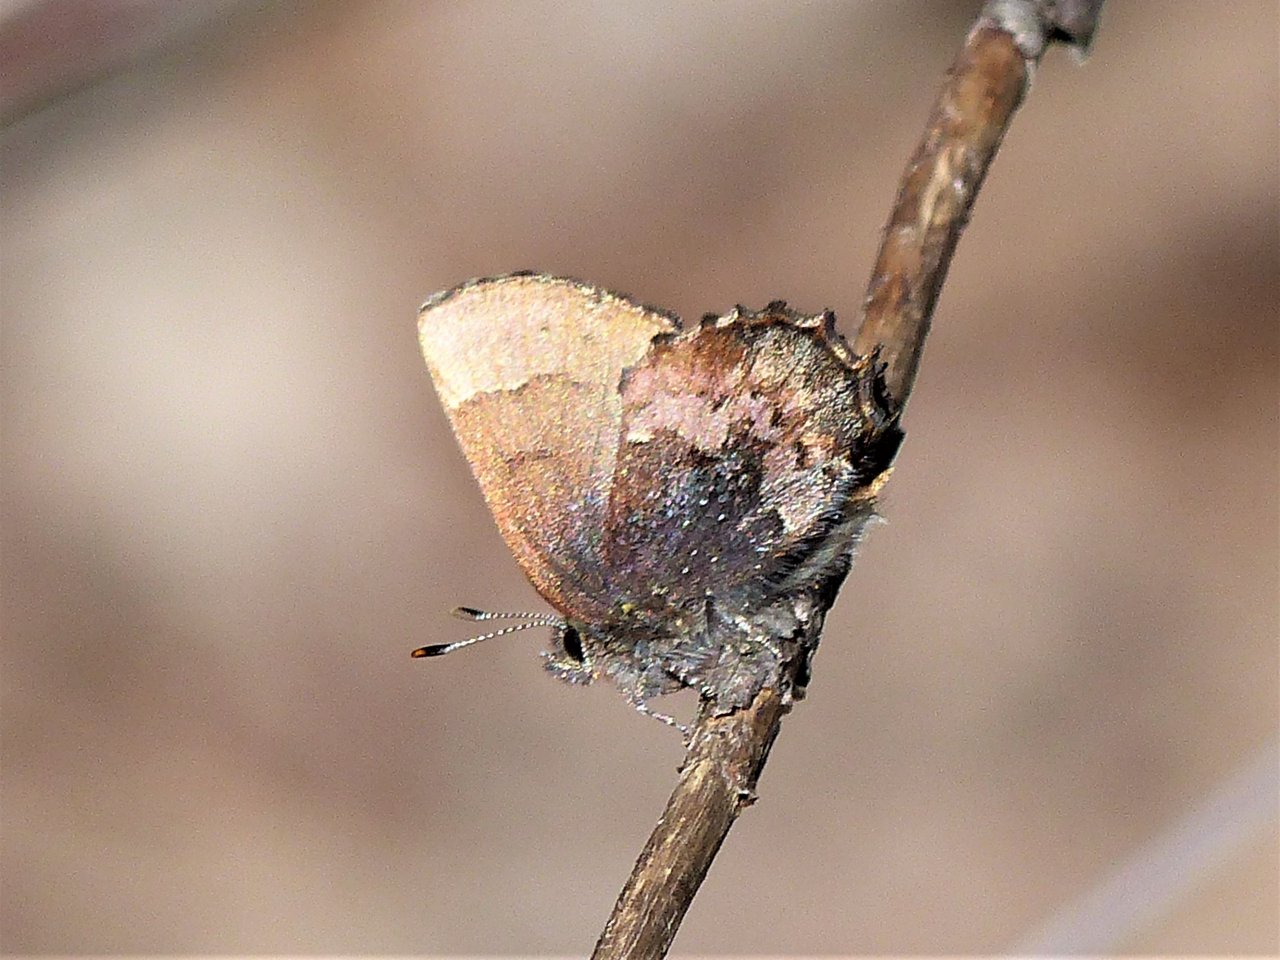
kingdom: Animalia
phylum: Arthropoda
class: Insecta
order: Lepidoptera
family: Lycaenidae
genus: Incisalia
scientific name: Incisalia henrici
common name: Henry's Elfin
